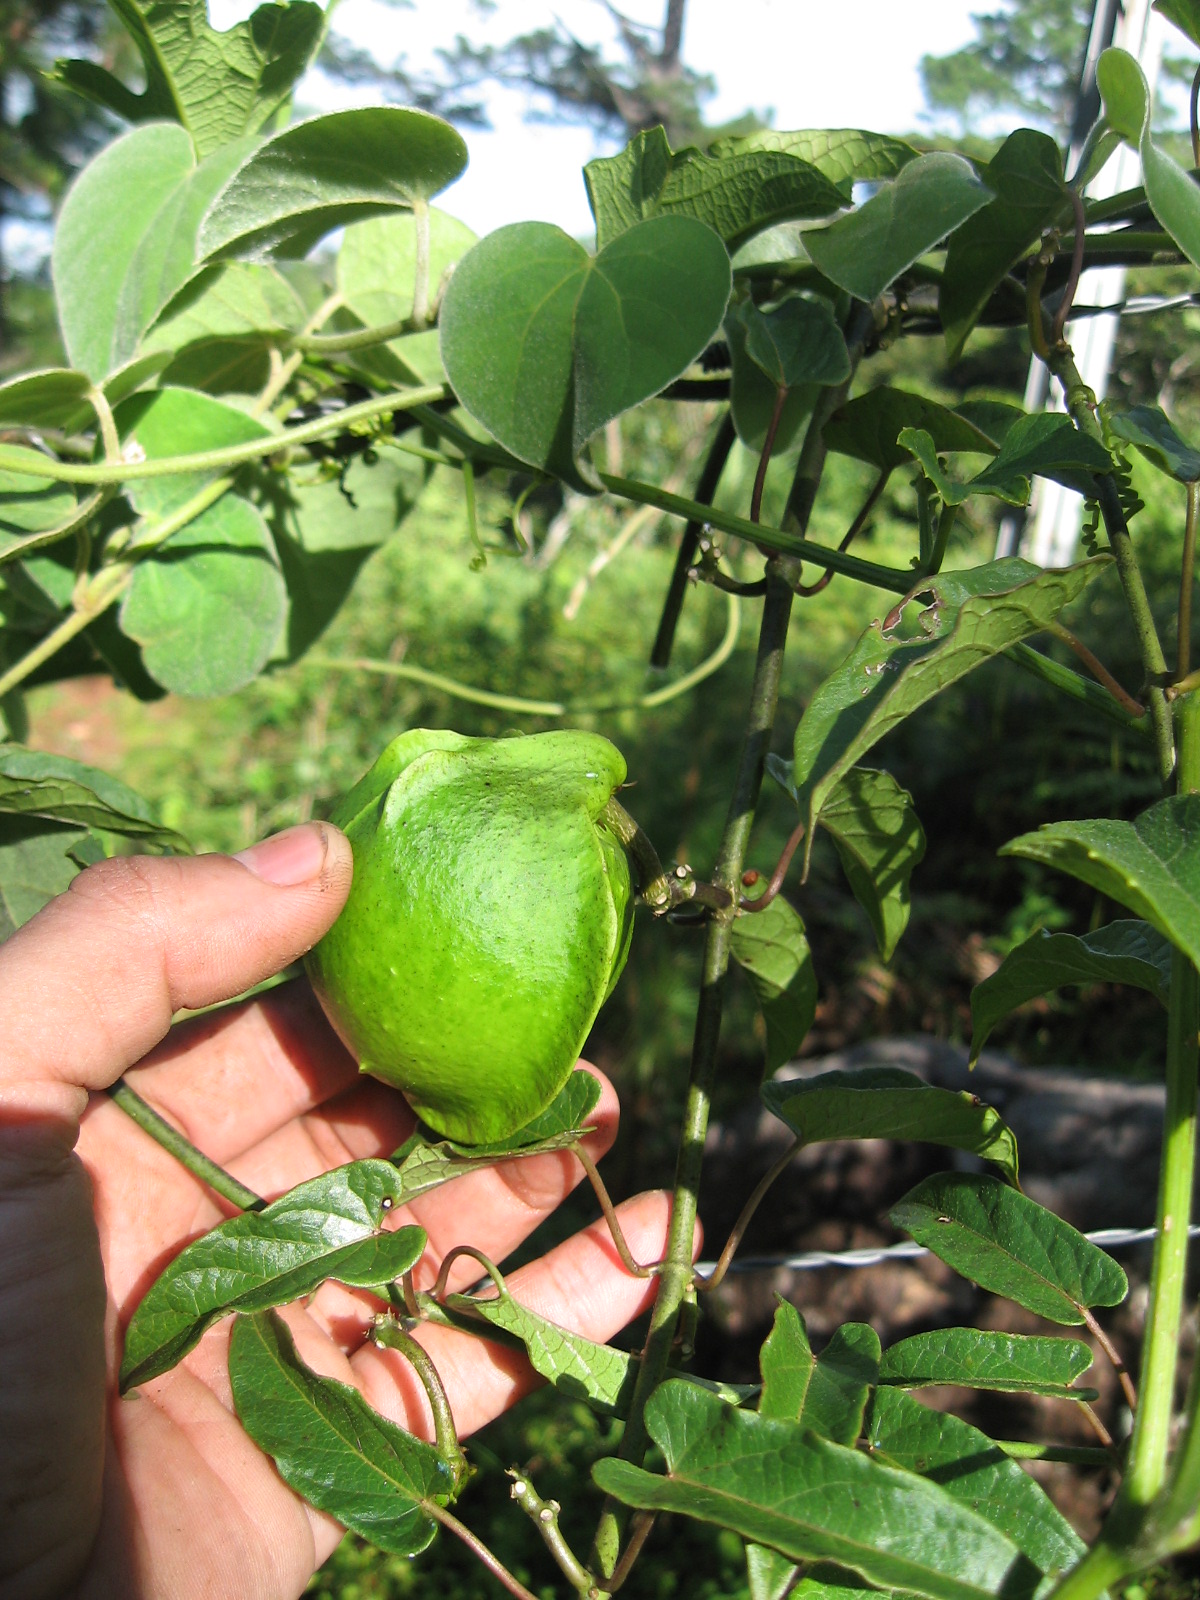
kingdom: Plantae
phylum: Tracheophyta
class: Magnoliopsida
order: Gentianales
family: Apocynaceae
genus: Gonolobus
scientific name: Gonolobus
